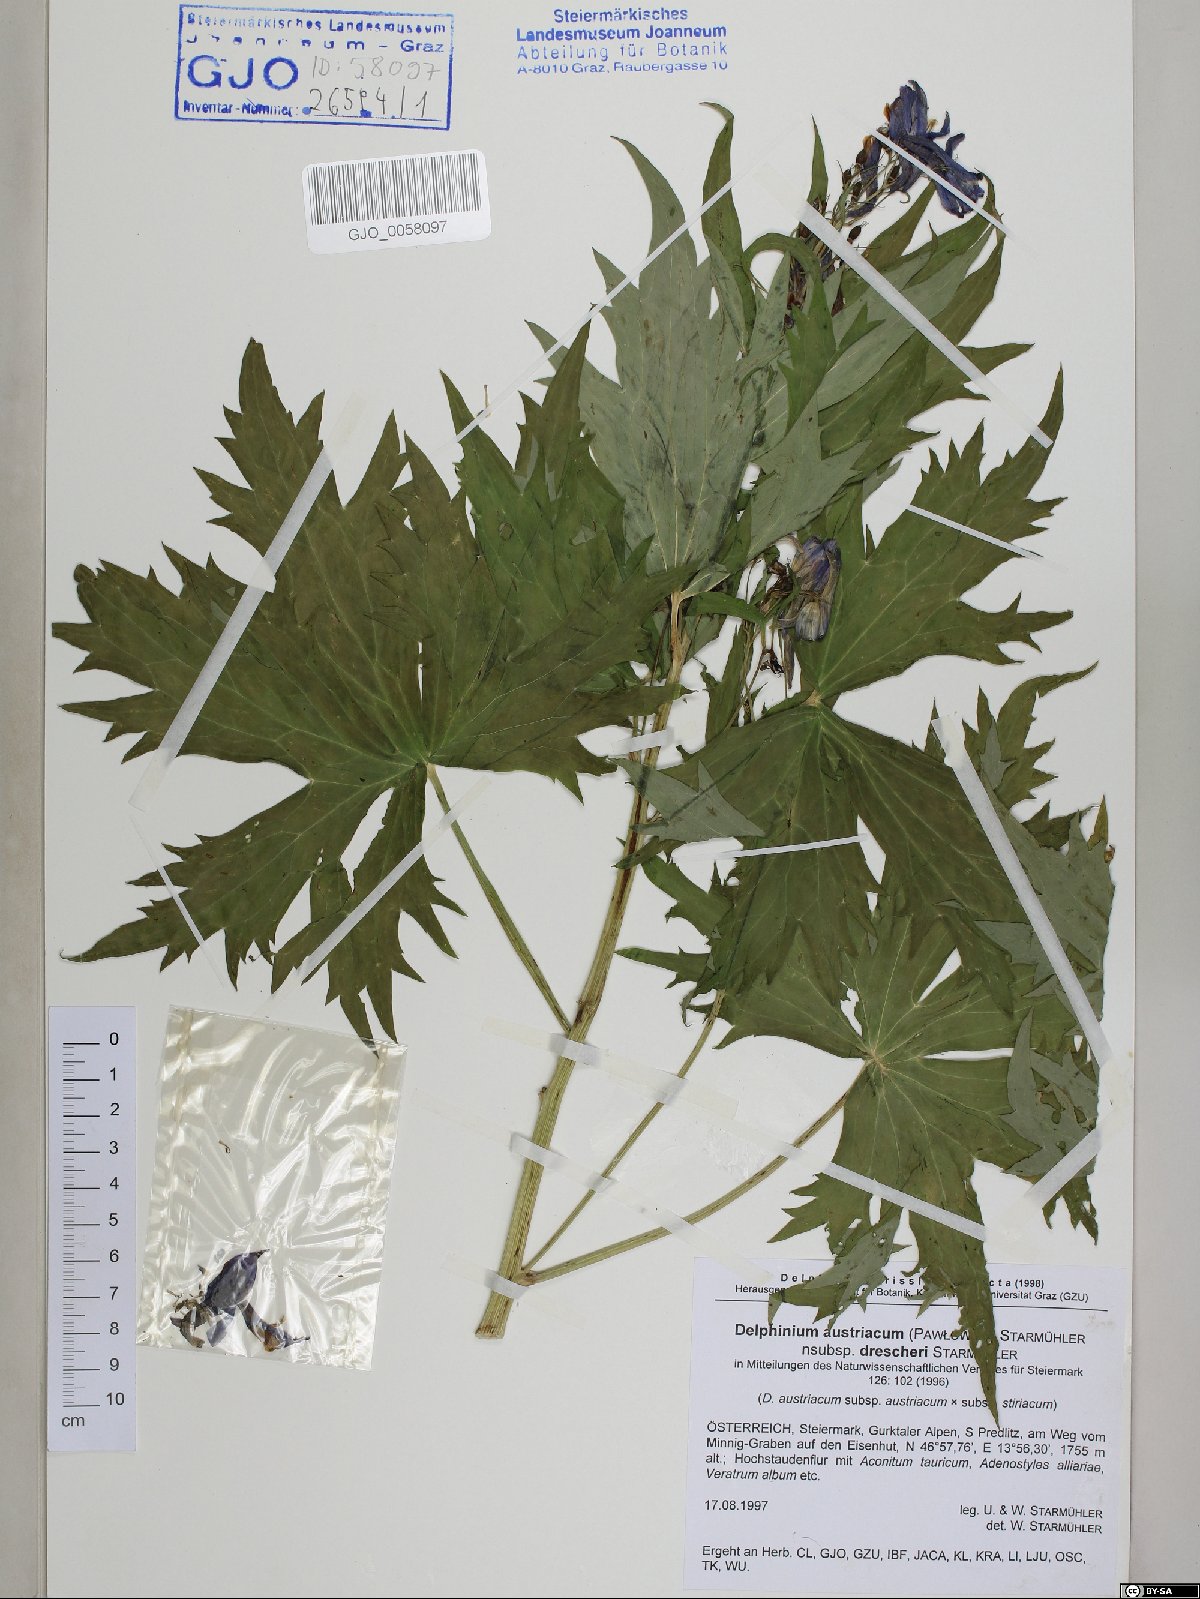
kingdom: Plantae
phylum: Tracheophyta
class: Magnoliopsida
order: Ranunculales
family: Ranunculaceae
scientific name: Ranunculaceae
